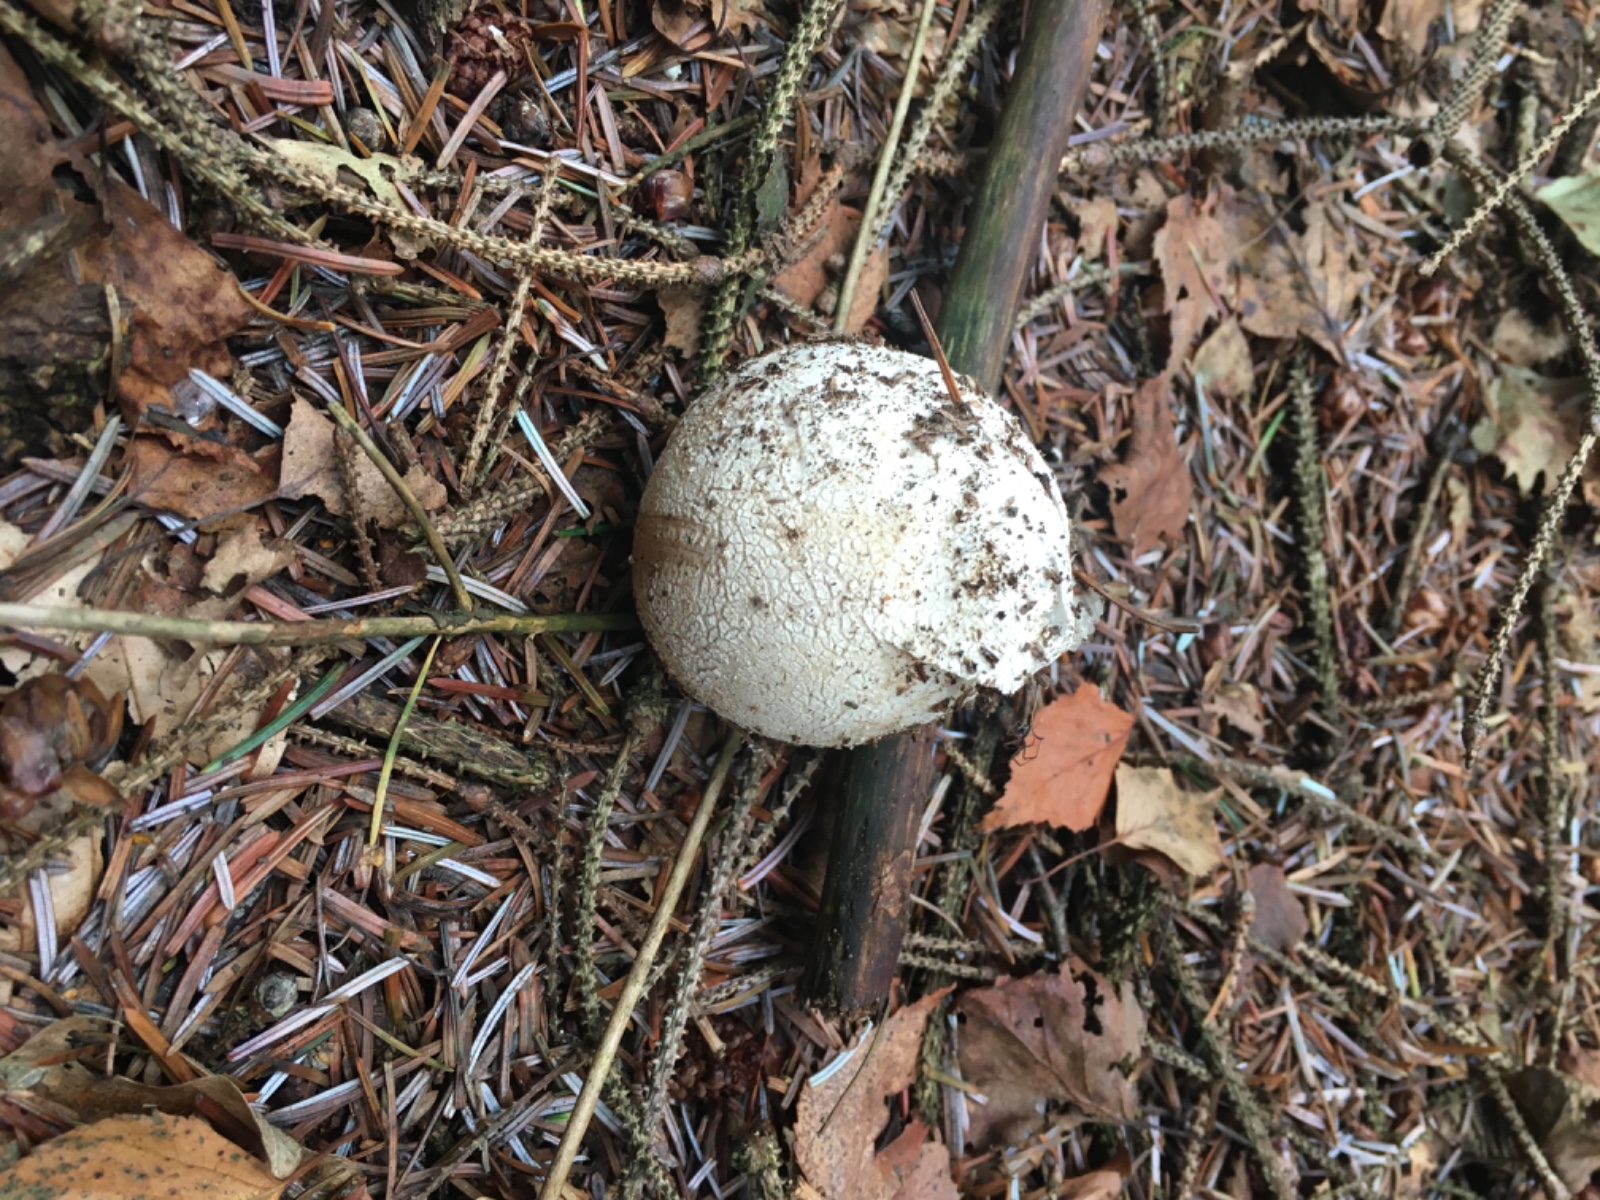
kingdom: Fungi
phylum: Basidiomycota
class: Agaricomycetes
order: Phallales
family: Phallaceae
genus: Phallus
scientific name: Phallus impudicus
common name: almindelig stinksvamp
